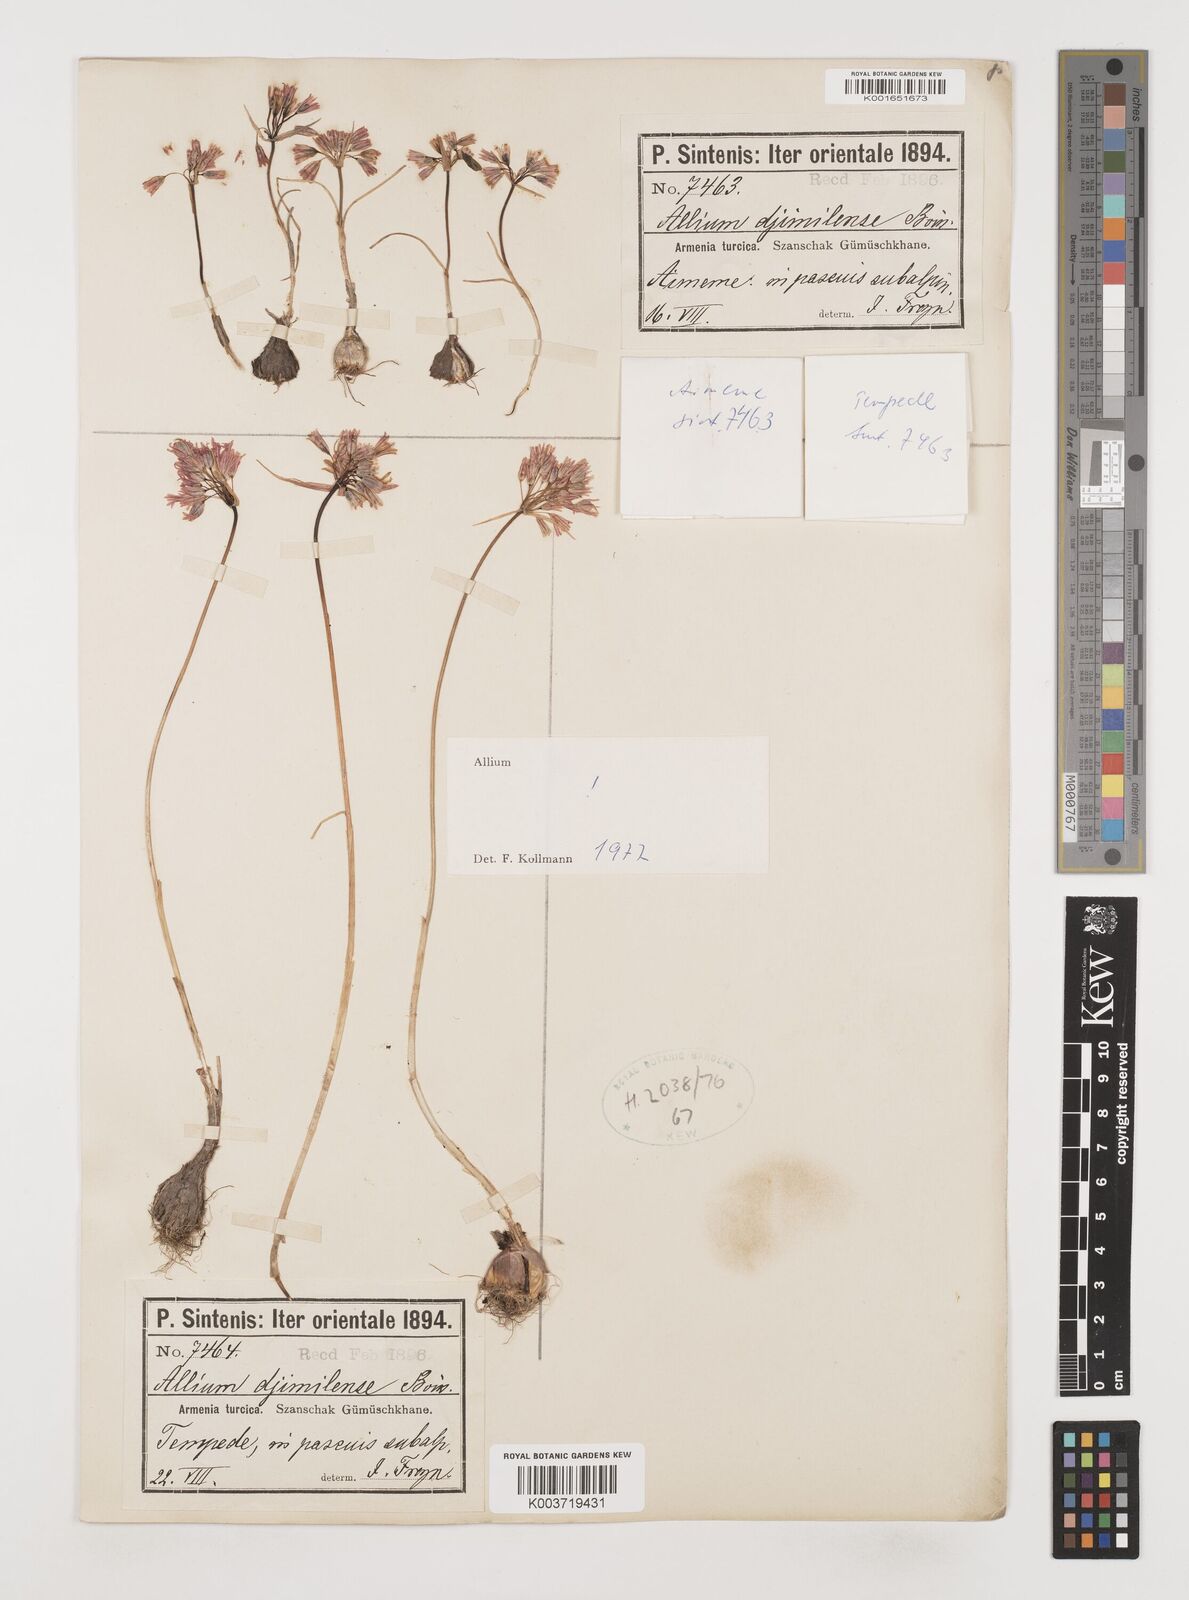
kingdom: Plantae
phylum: Tracheophyta
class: Liliopsida
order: Asparagales
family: Amaryllidaceae
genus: Allium
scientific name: Allium djimilense
